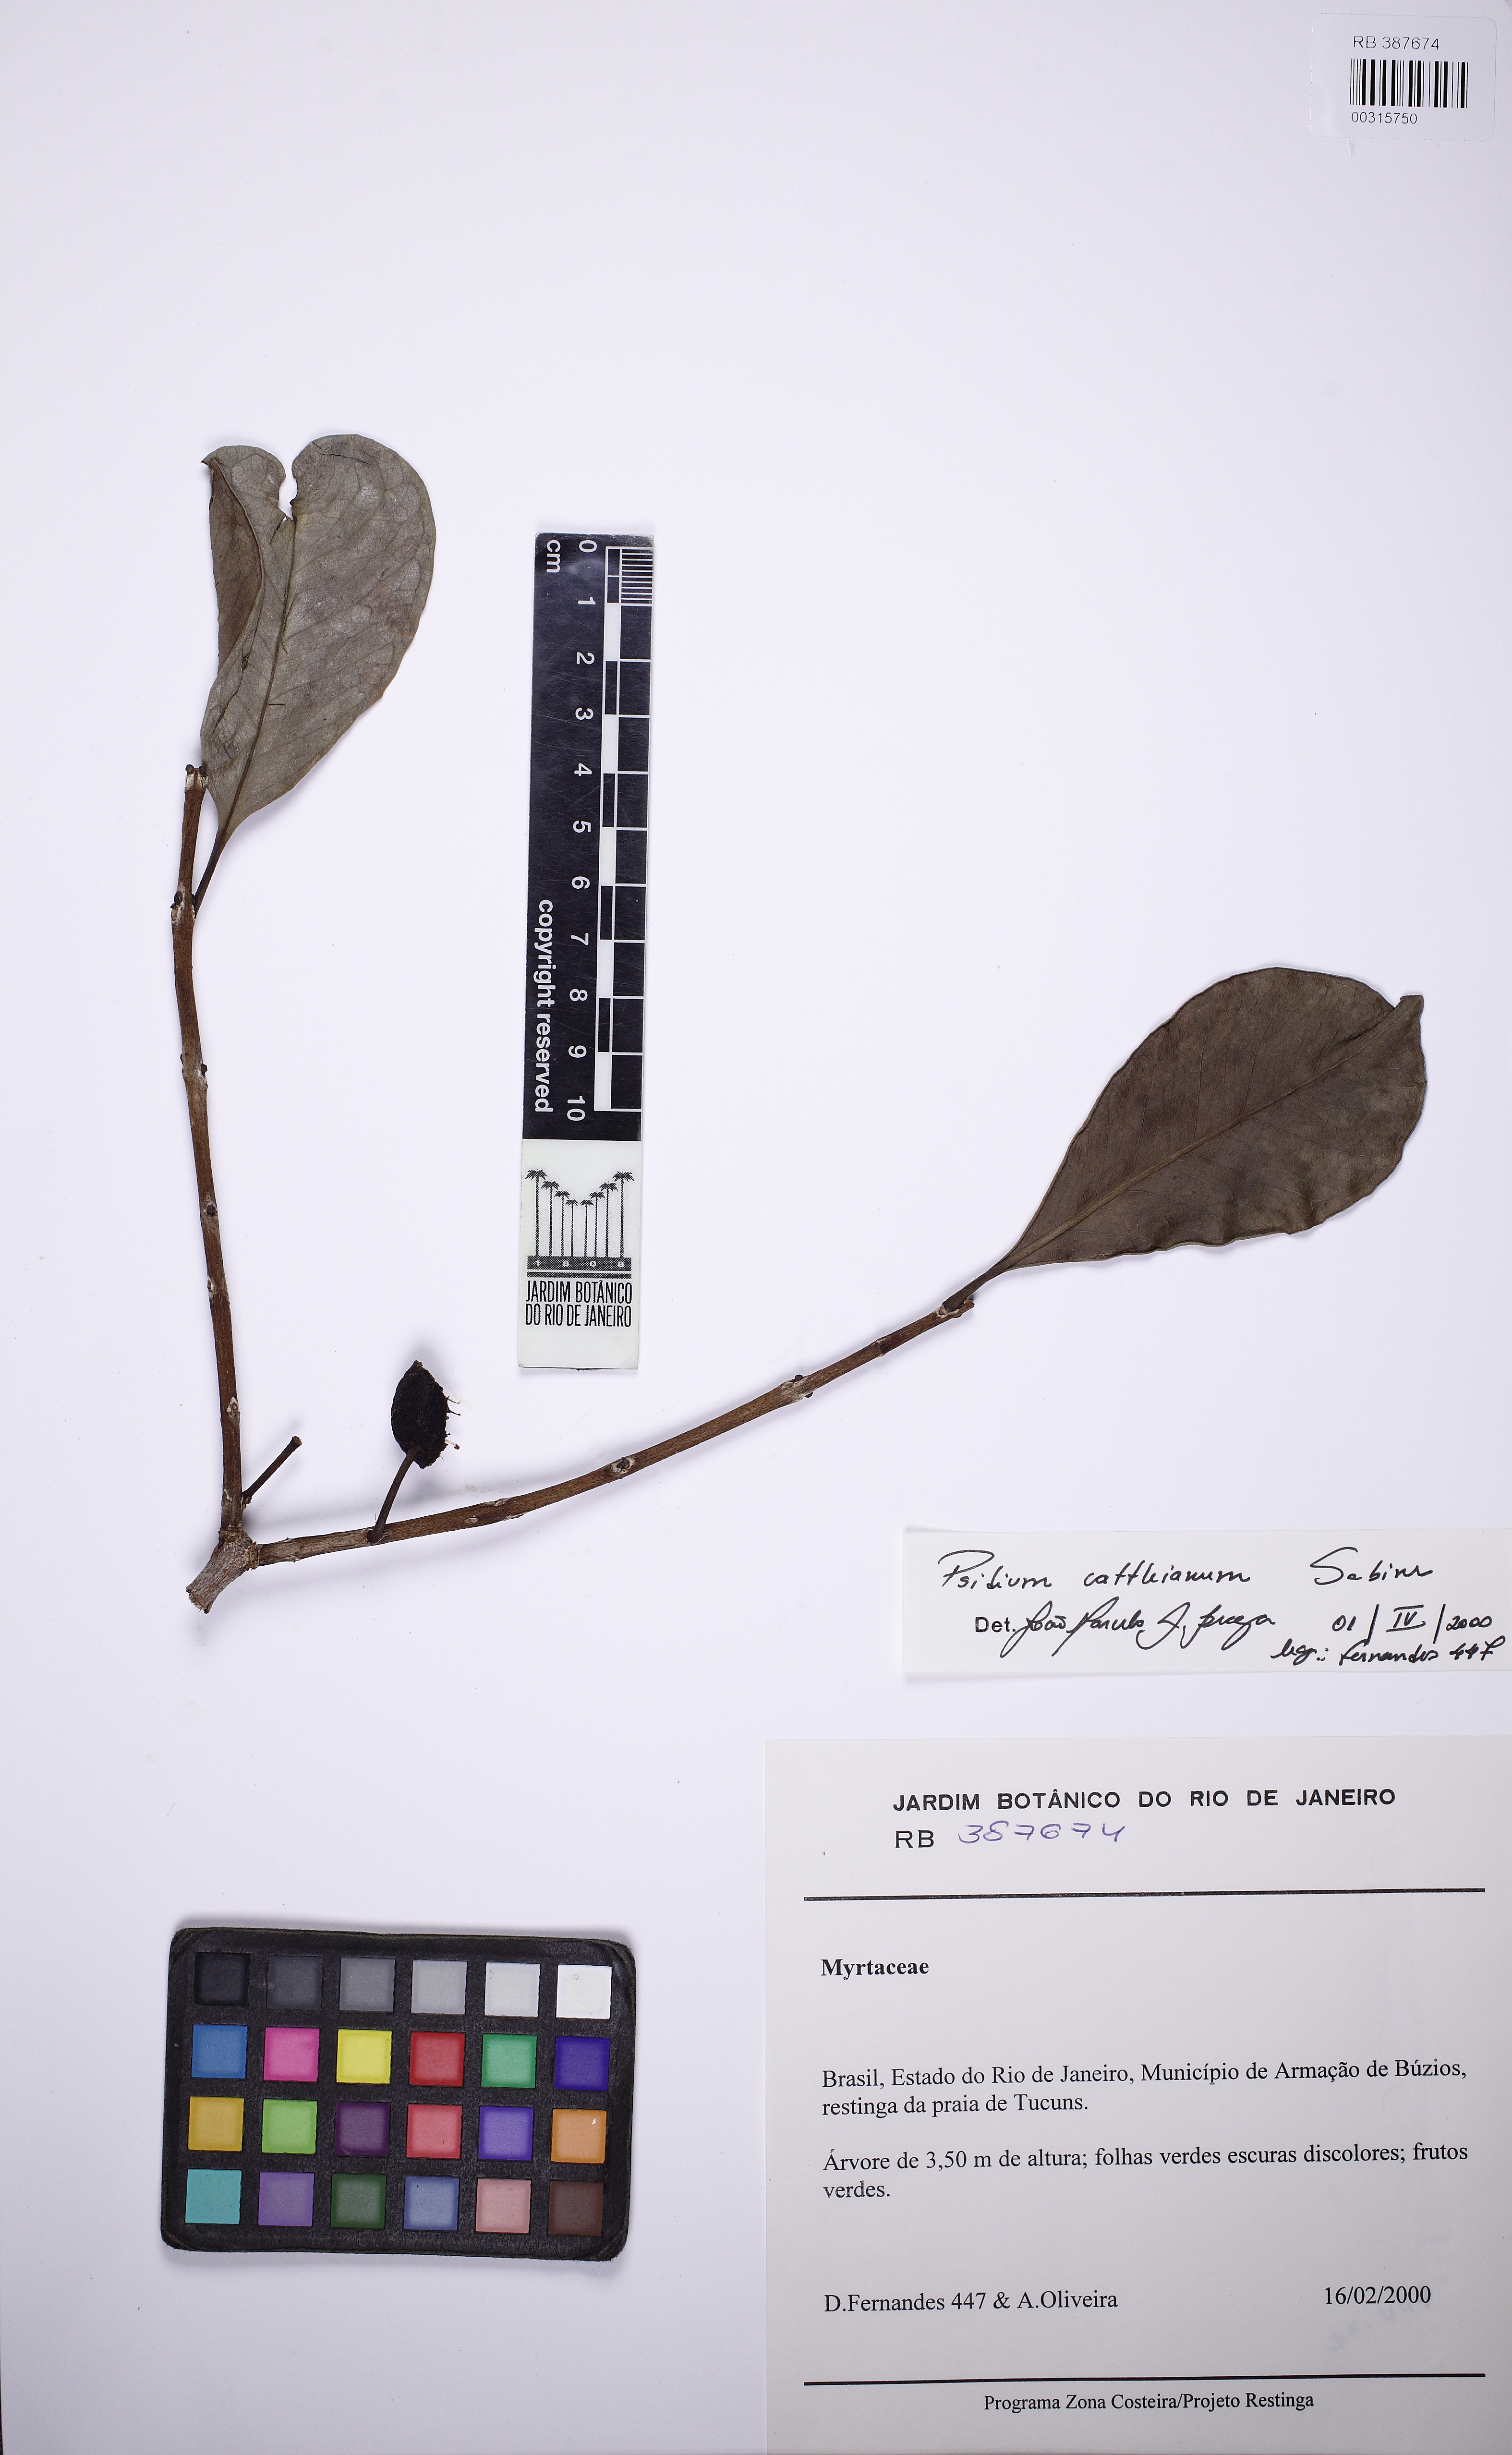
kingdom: Plantae
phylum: Tracheophyta
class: Magnoliopsida
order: Myrtales
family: Myrtaceae
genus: Psidium
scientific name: Psidium cattleianum
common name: Strawberry guava
